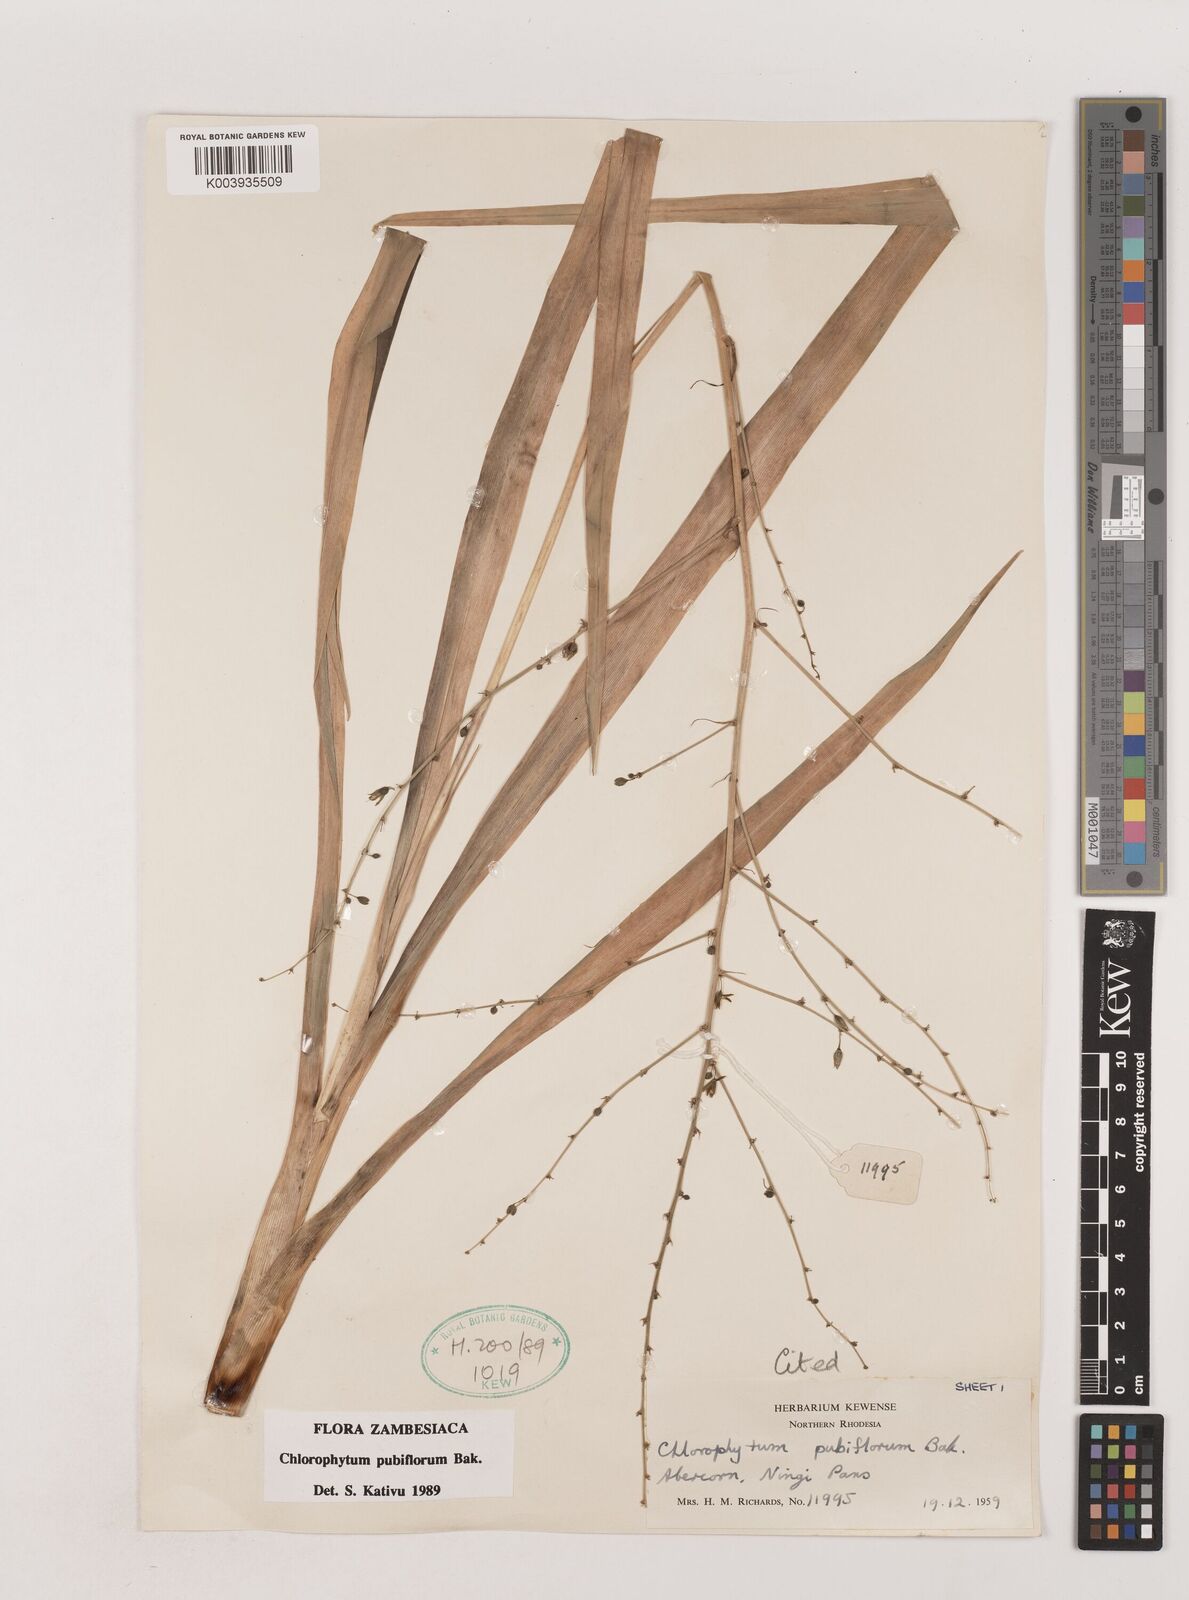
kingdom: Plantae
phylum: Tracheophyta
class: Liliopsida
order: Asparagales
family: Asparagaceae
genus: Chlorophytum
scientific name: Chlorophytum pubiflorum
